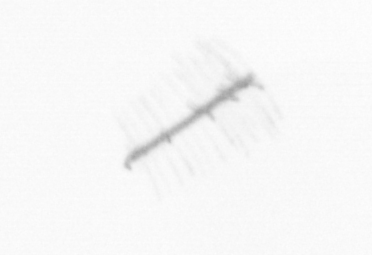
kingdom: Chromista
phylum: Ochrophyta
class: Bacillariophyceae
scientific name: Bacillariophyceae
